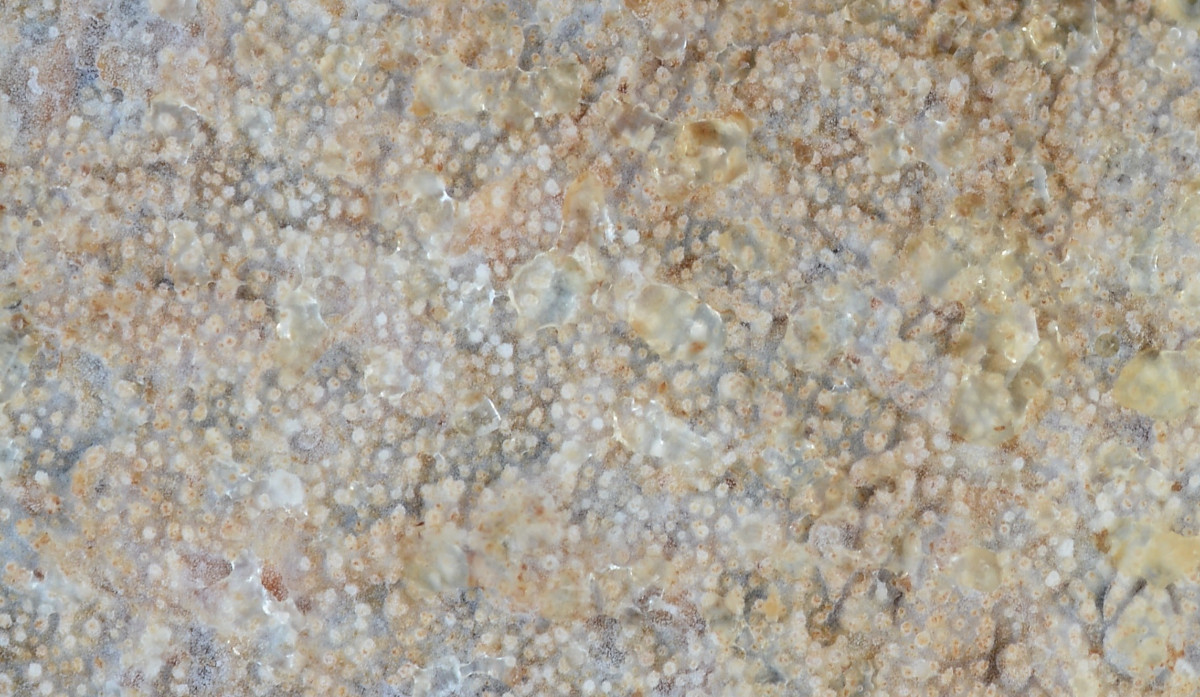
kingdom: Fungi
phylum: Basidiomycota
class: Agaricomycetes
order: Hymenochaetales
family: Rickenellaceae
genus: Resinicium
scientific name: Resinicium bicolor
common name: almindelig vokstand
